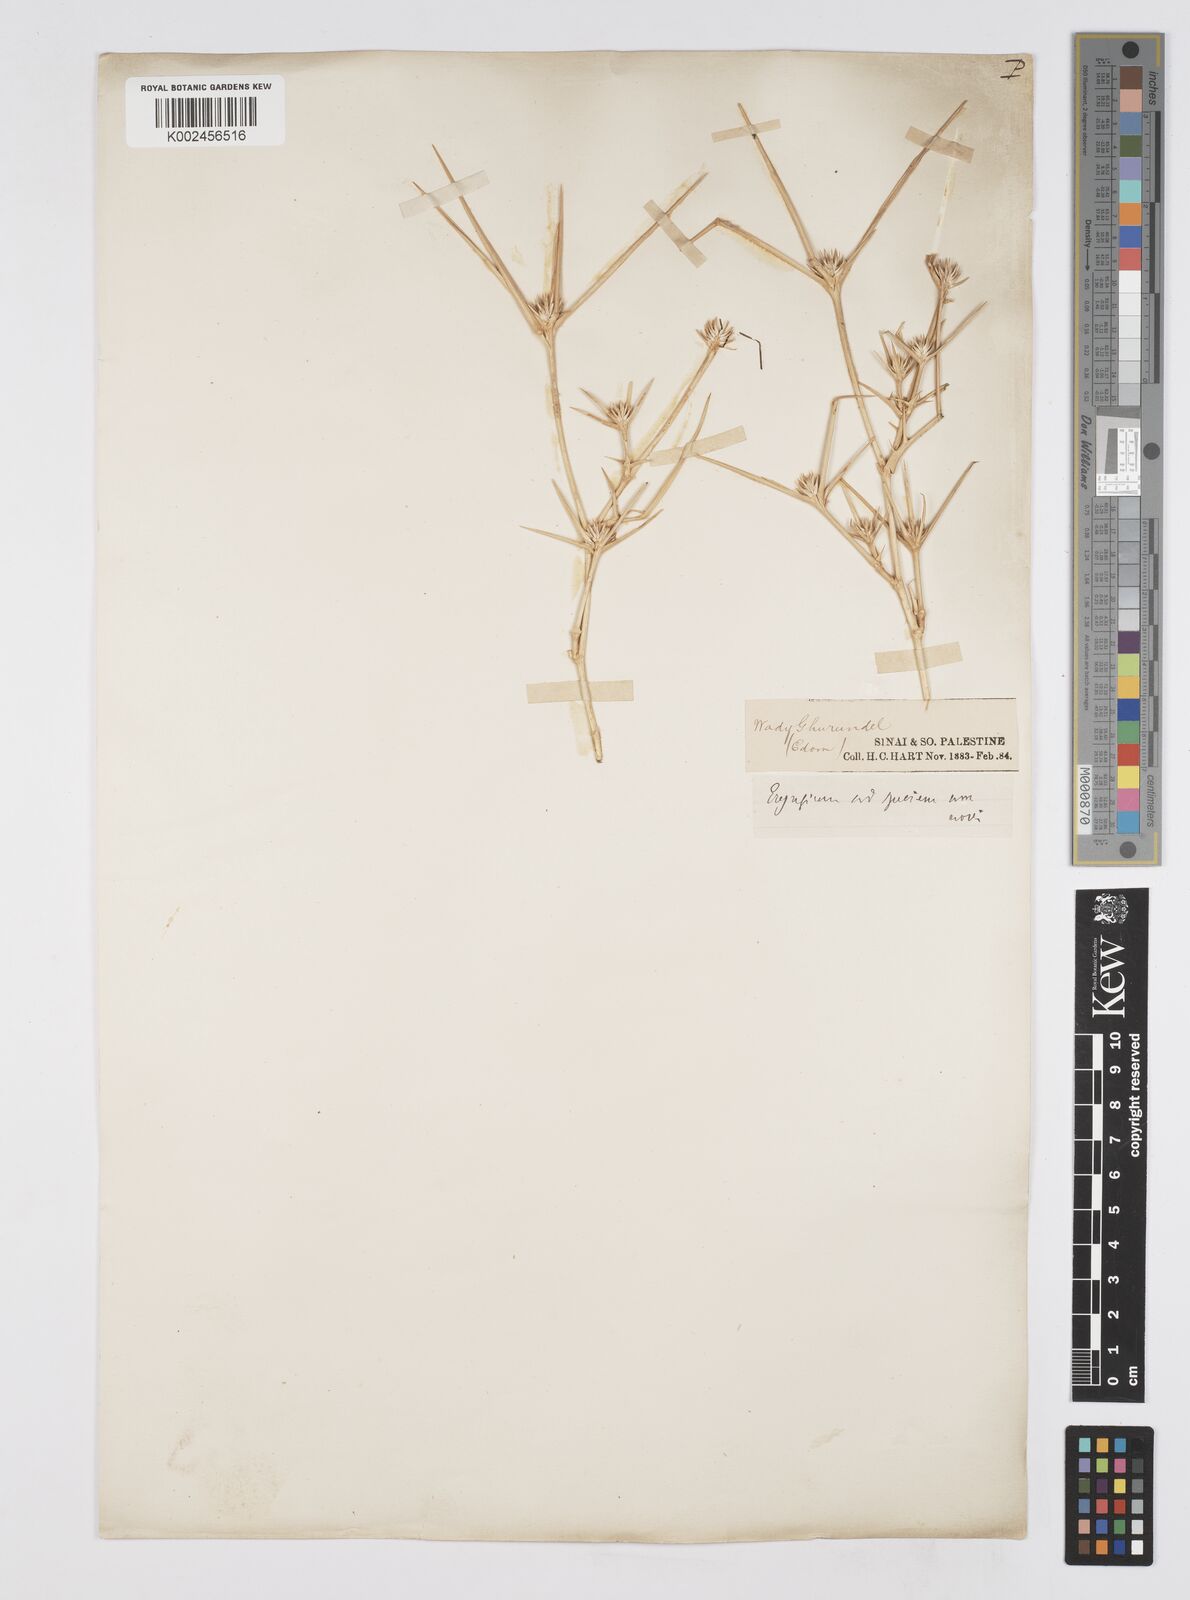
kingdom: Plantae
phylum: Tracheophyta
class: Magnoliopsida
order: Apiales
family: Apiaceae
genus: Eryngium
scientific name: Eryngium glomeratum
